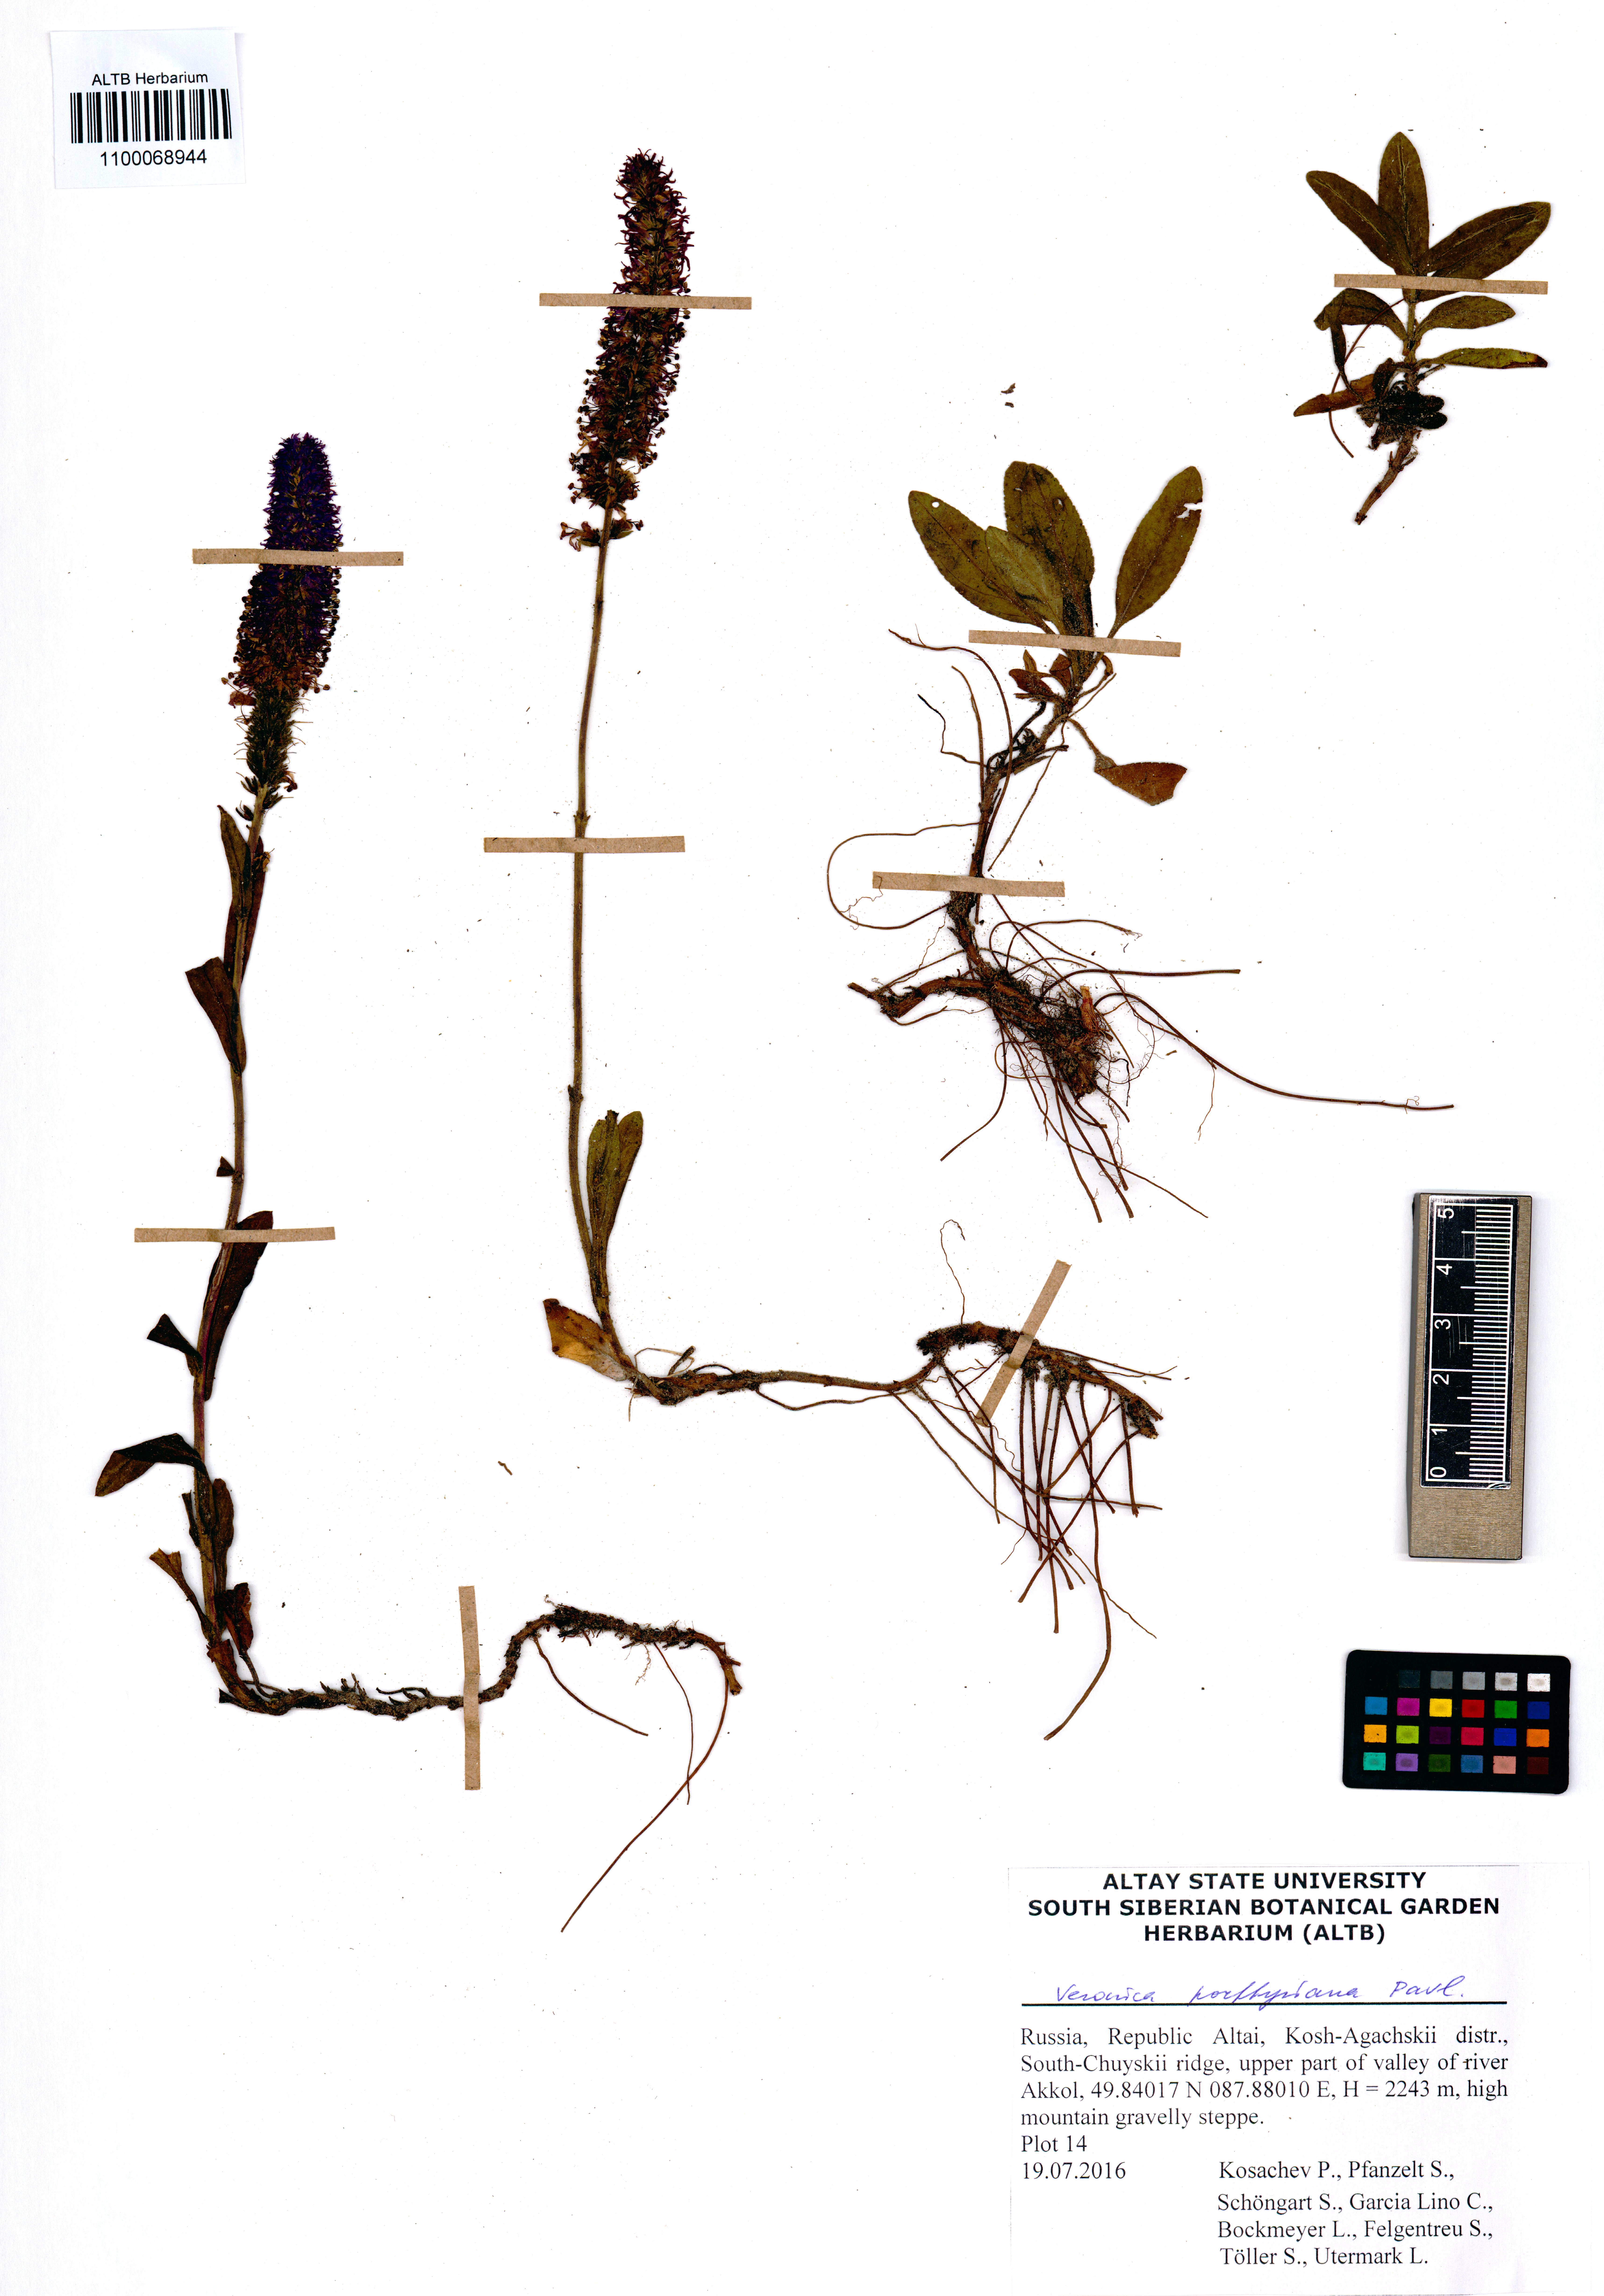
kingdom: Plantae
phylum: Tracheophyta
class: Magnoliopsida
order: Lamiales
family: Plantaginaceae
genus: Veronica
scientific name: Veronica porphyriana
